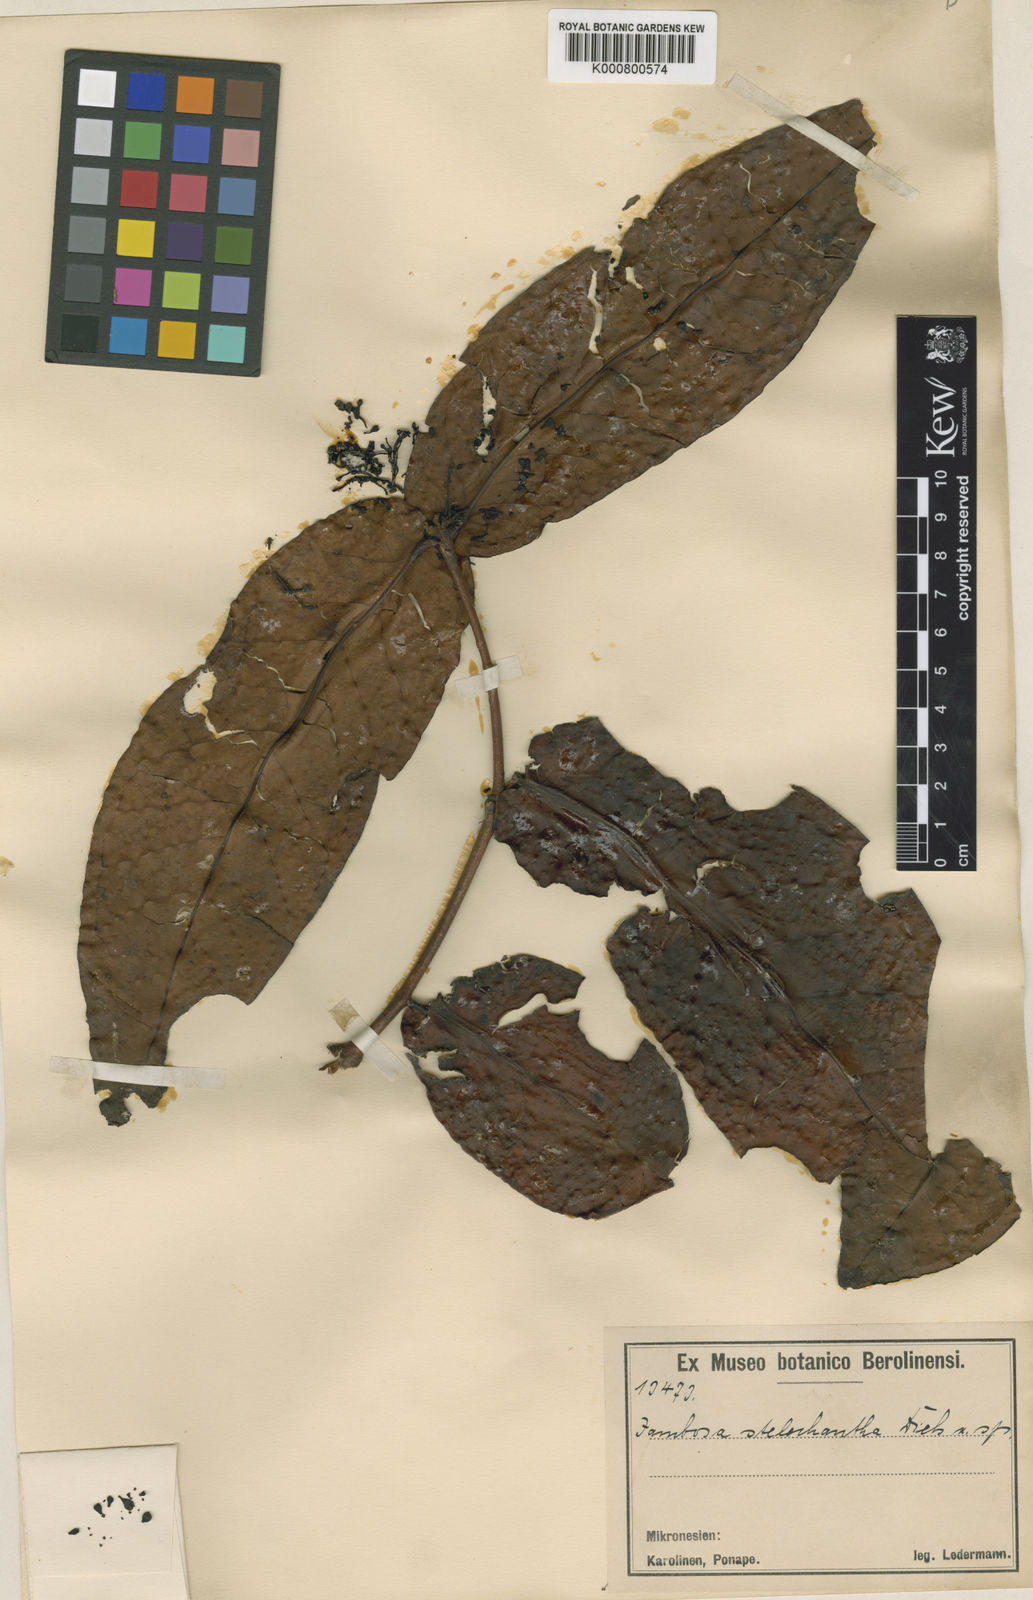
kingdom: Plantae
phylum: Tracheophyta
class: Magnoliopsida
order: Myrtales
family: Myrtaceae
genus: Syzygium
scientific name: Syzygium stelechanthum
